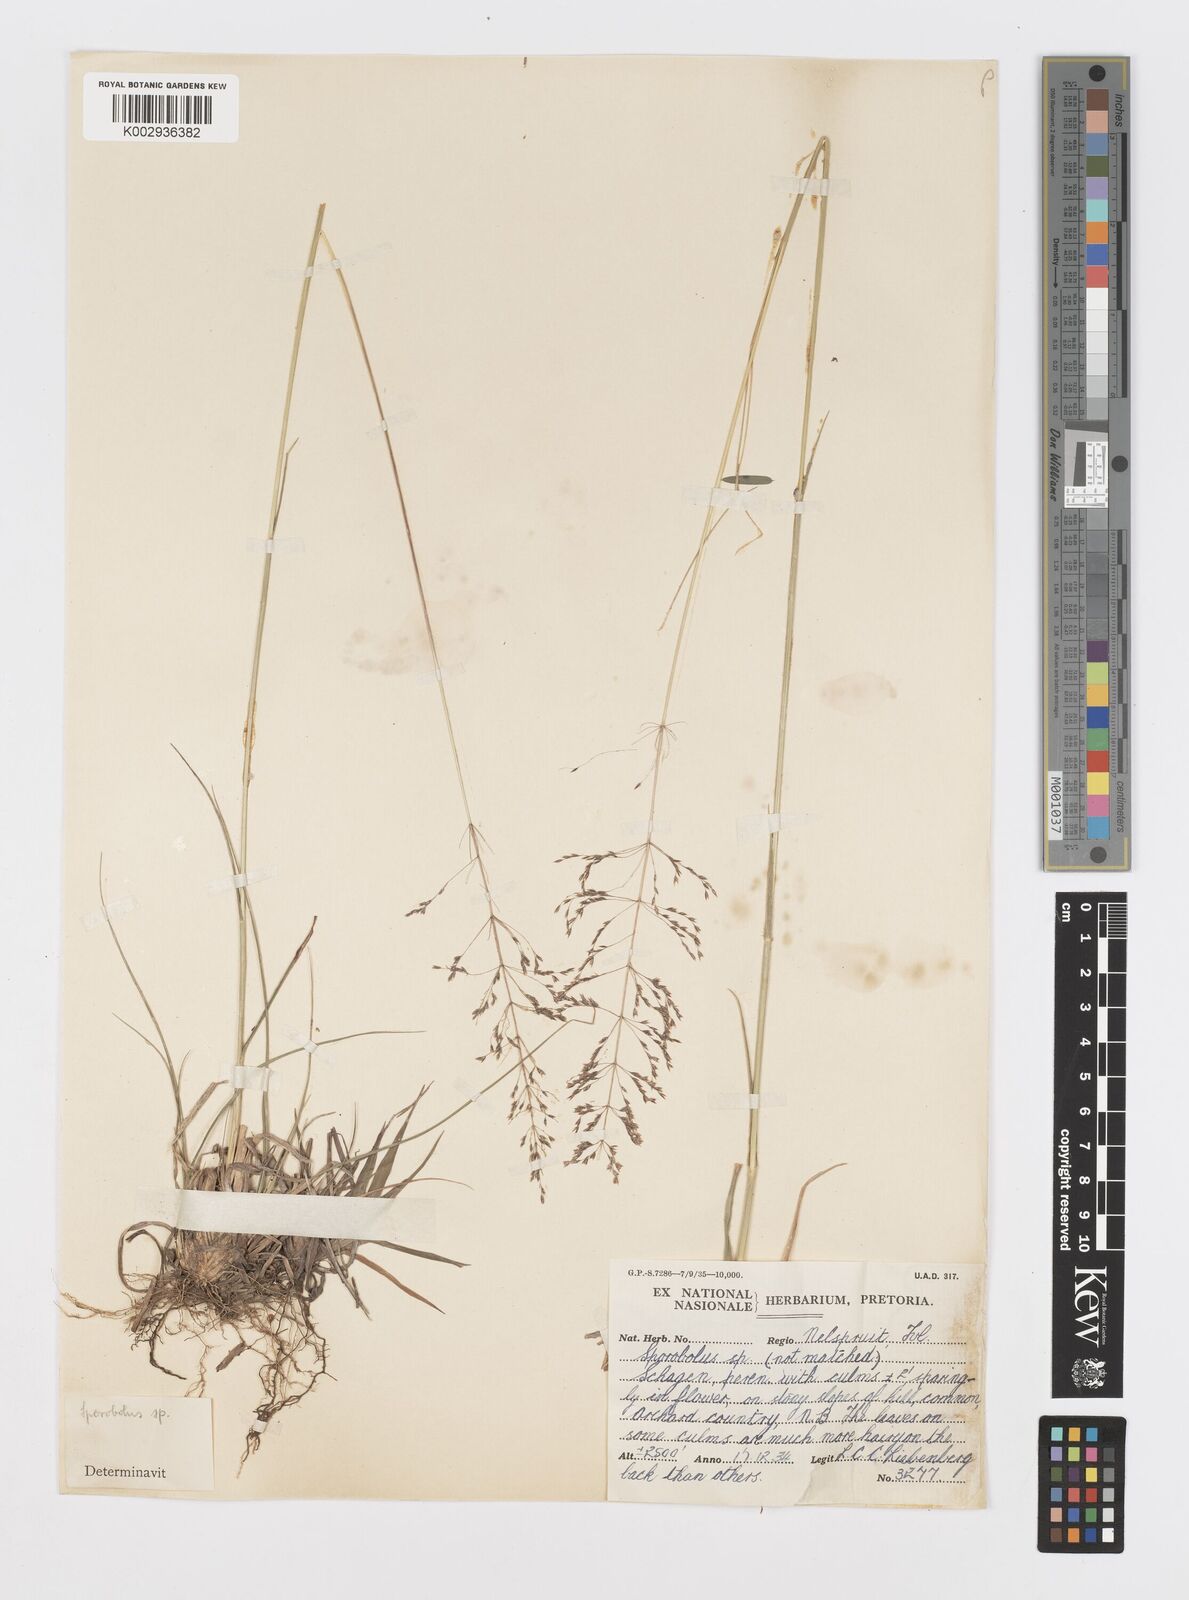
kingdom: Plantae
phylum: Tracheophyta
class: Liliopsida
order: Poales
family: Poaceae
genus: Sporobolus
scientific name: Sporobolus sanguineus
